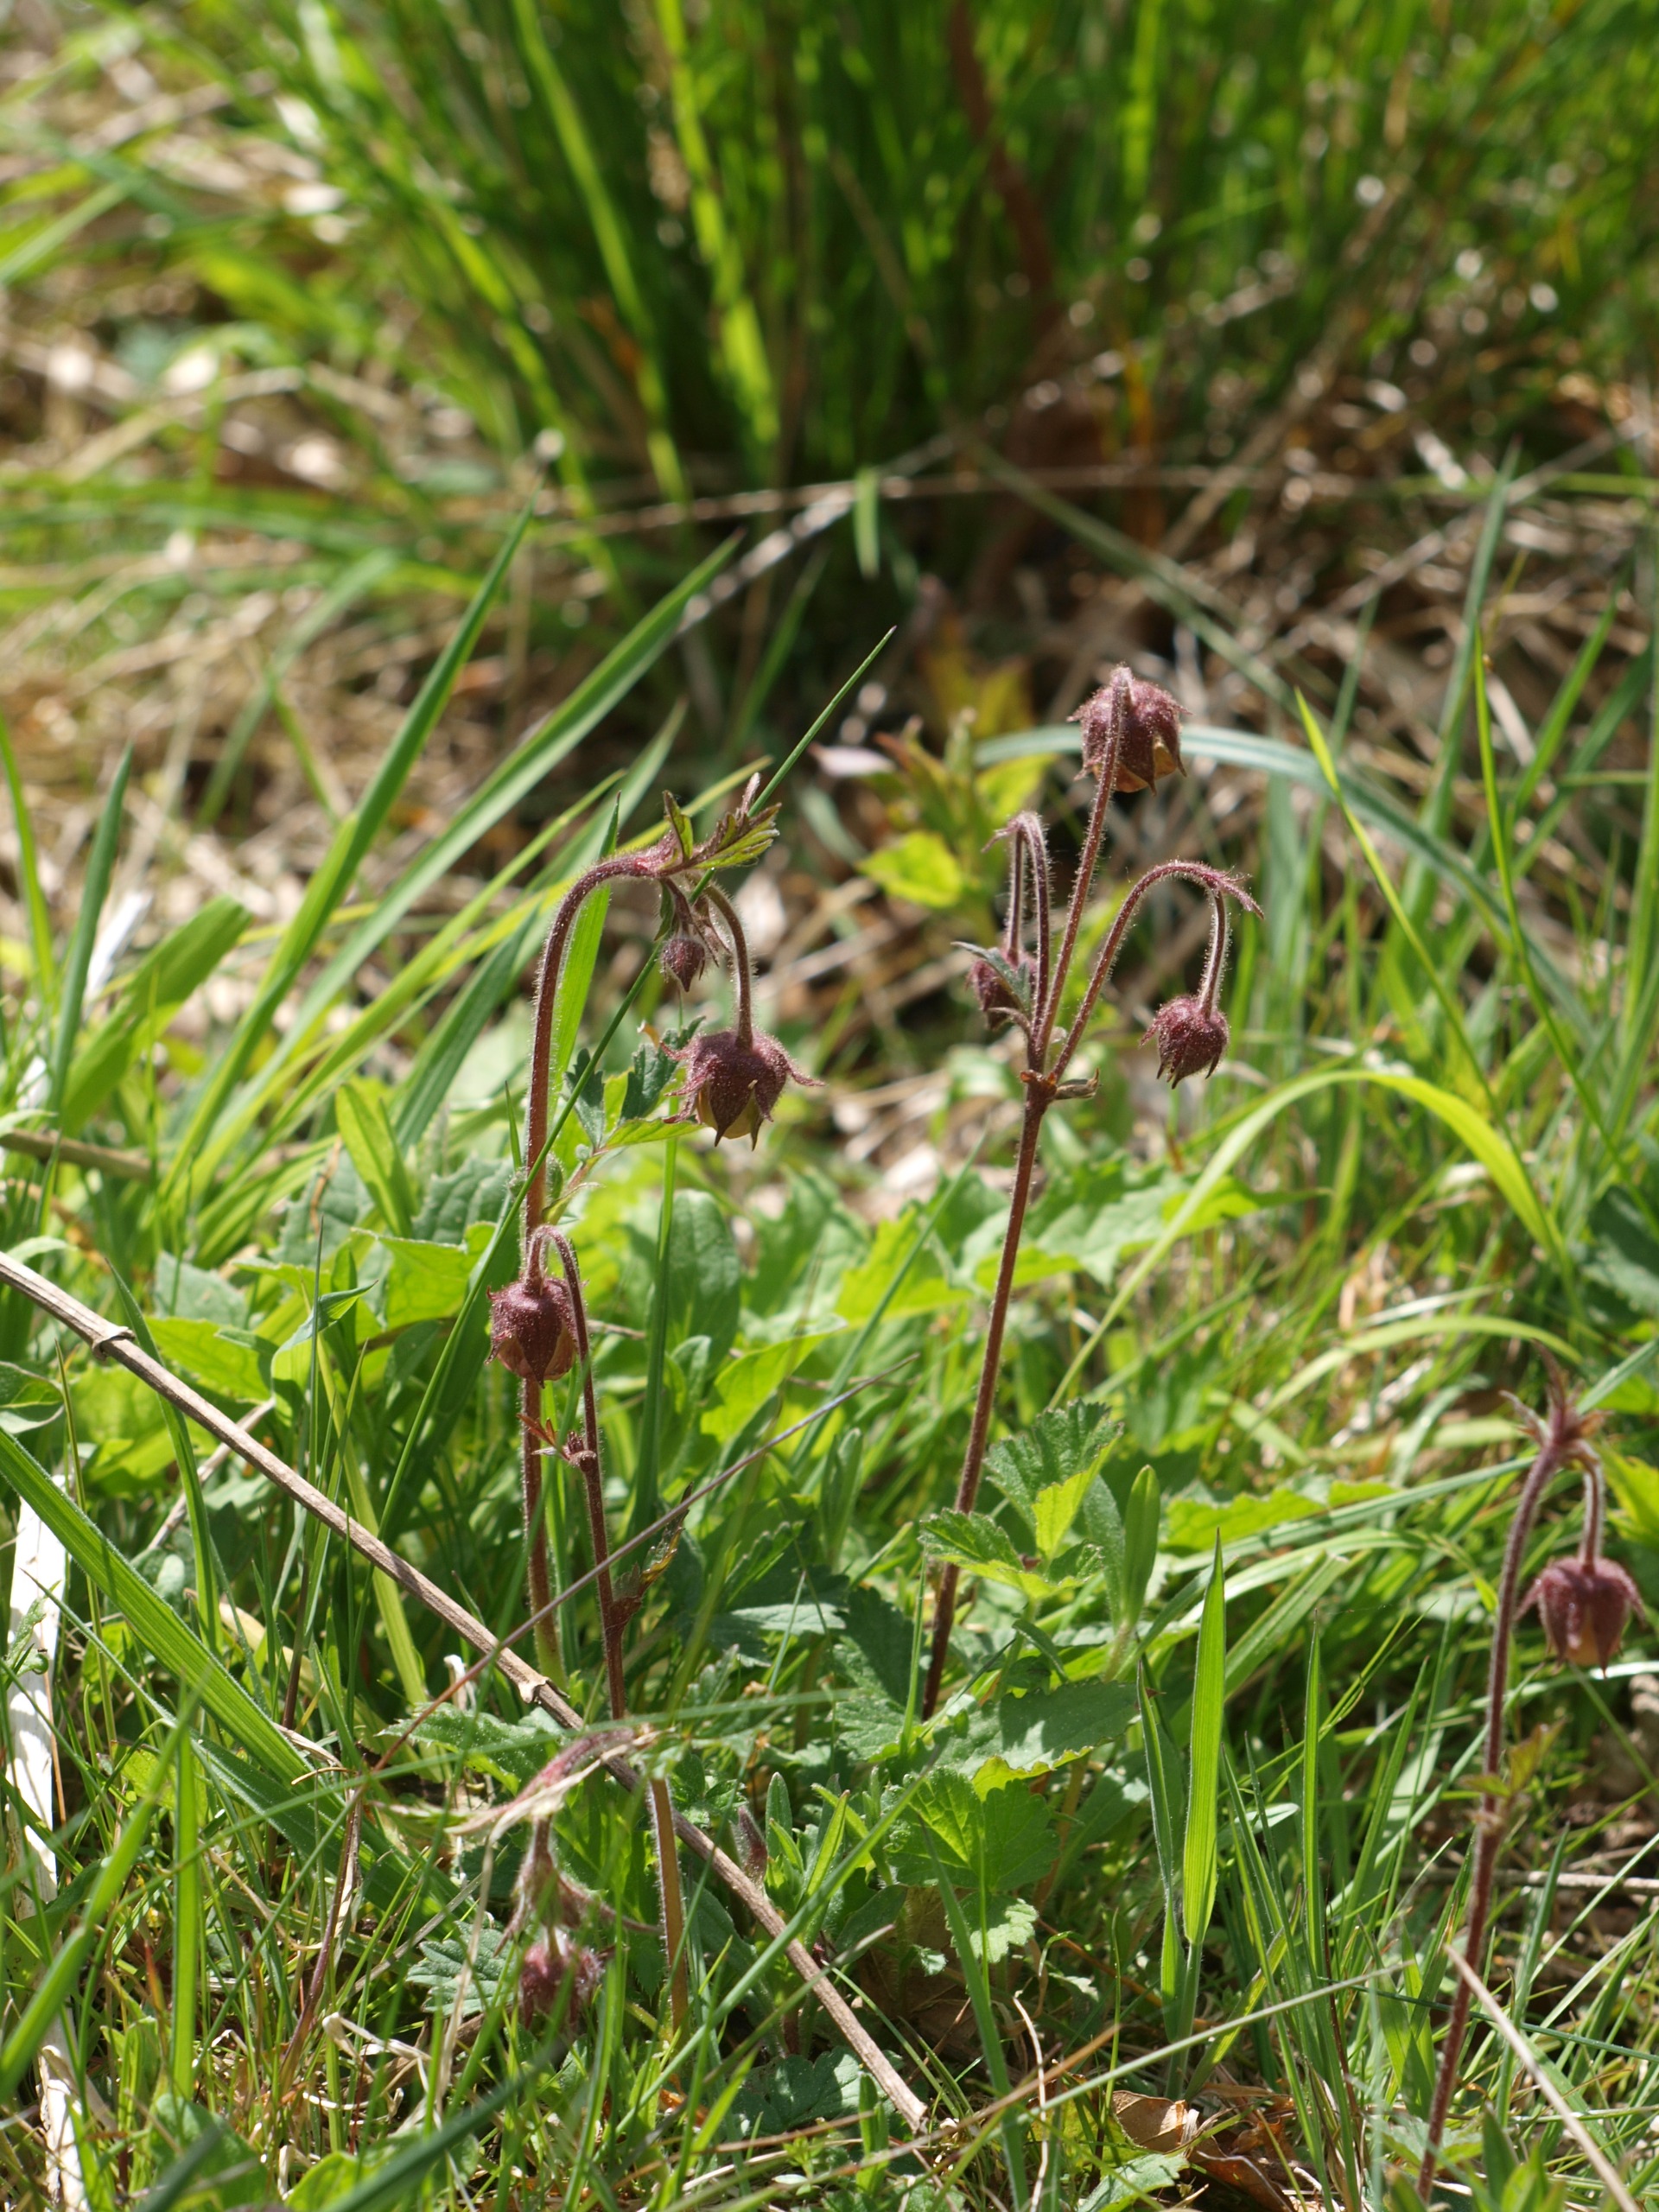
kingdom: Plantae
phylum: Tracheophyta
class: Magnoliopsida
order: Rosales
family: Rosaceae
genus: Geum
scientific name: Geum rivale
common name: Eng-nellikerod
